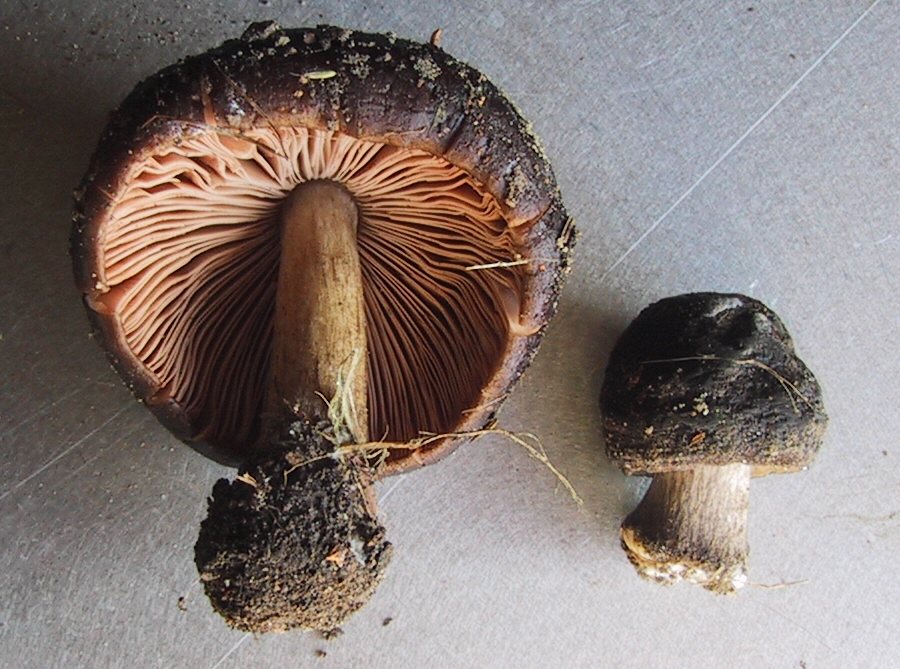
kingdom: Fungi
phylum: Basidiomycota
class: Agaricomycetes
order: Agaricales
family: Pluteaceae
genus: Pluteus
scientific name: Pluteus cervinus
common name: sodfarvet skærmhat
